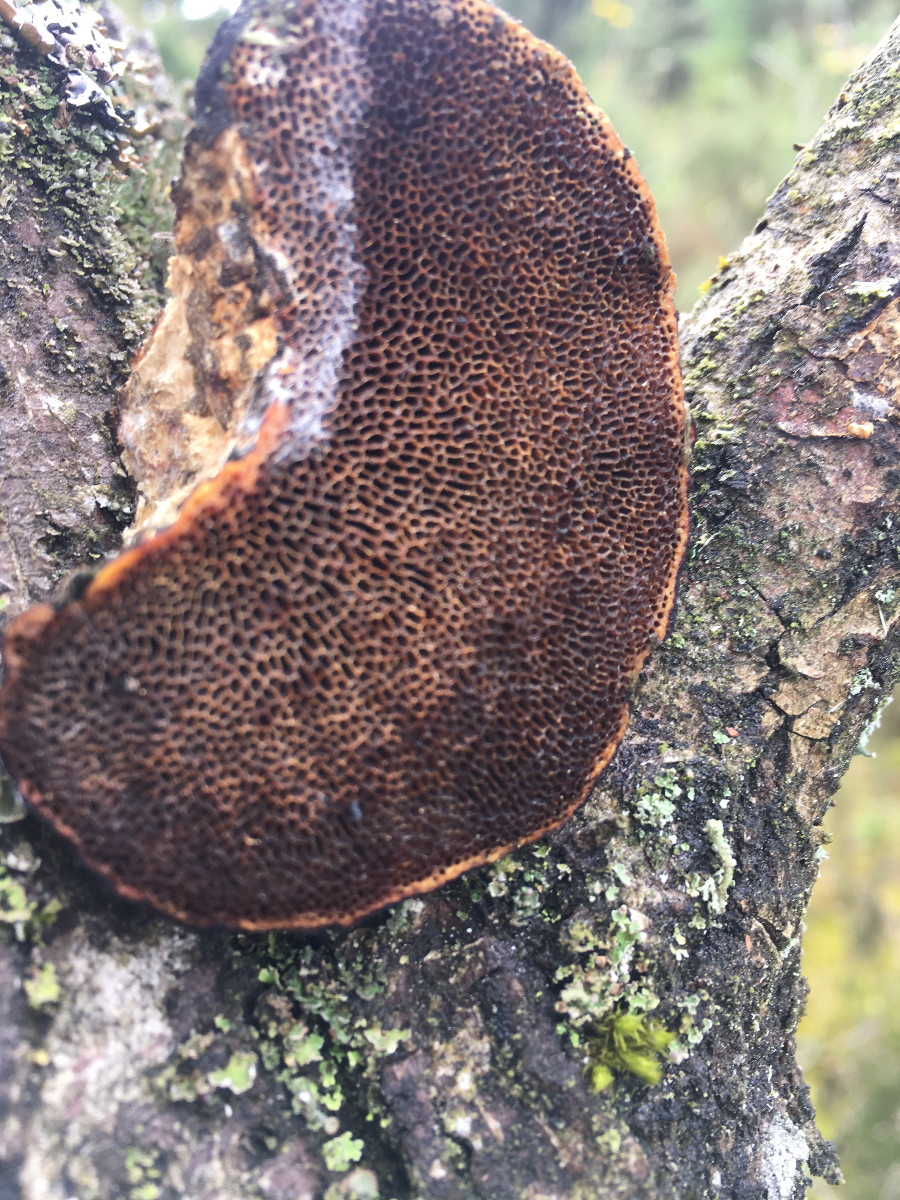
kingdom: Fungi
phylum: Basidiomycota
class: Agaricomycetes
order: Polyporales
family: Polyporaceae
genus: Daedaleopsis
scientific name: Daedaleopsis confragosa
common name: rødmende læderporesvamp
